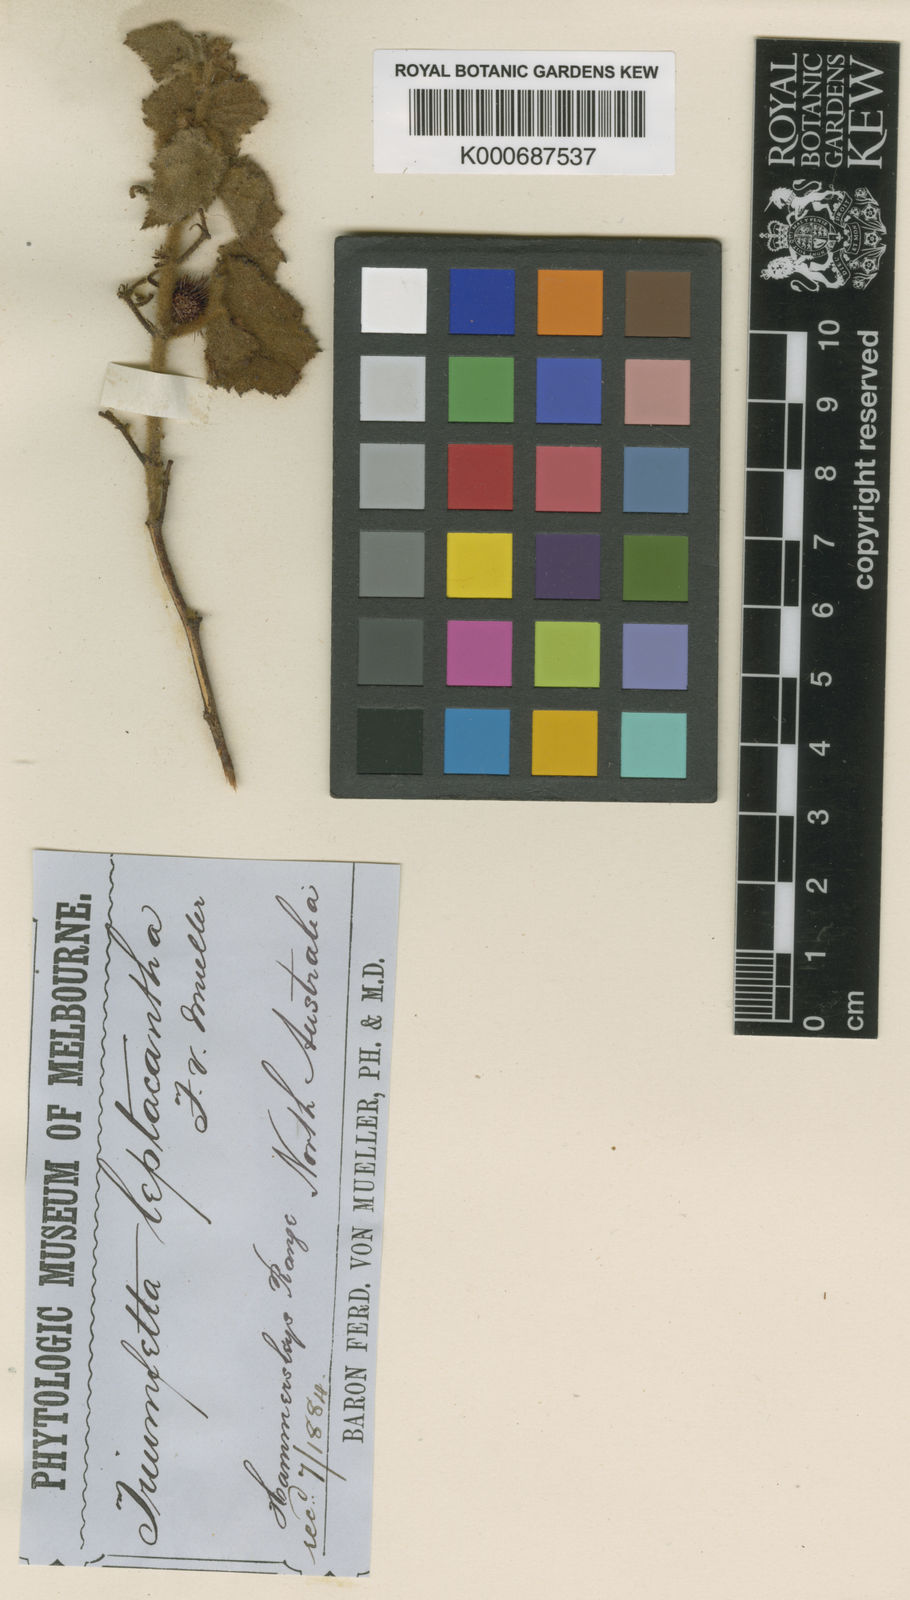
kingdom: Plantae
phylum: Tracheophyta
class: Magnoliopsida
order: Malvales
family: Malvaceae
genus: Triumfetta
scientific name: Triumfetta leptacantha
